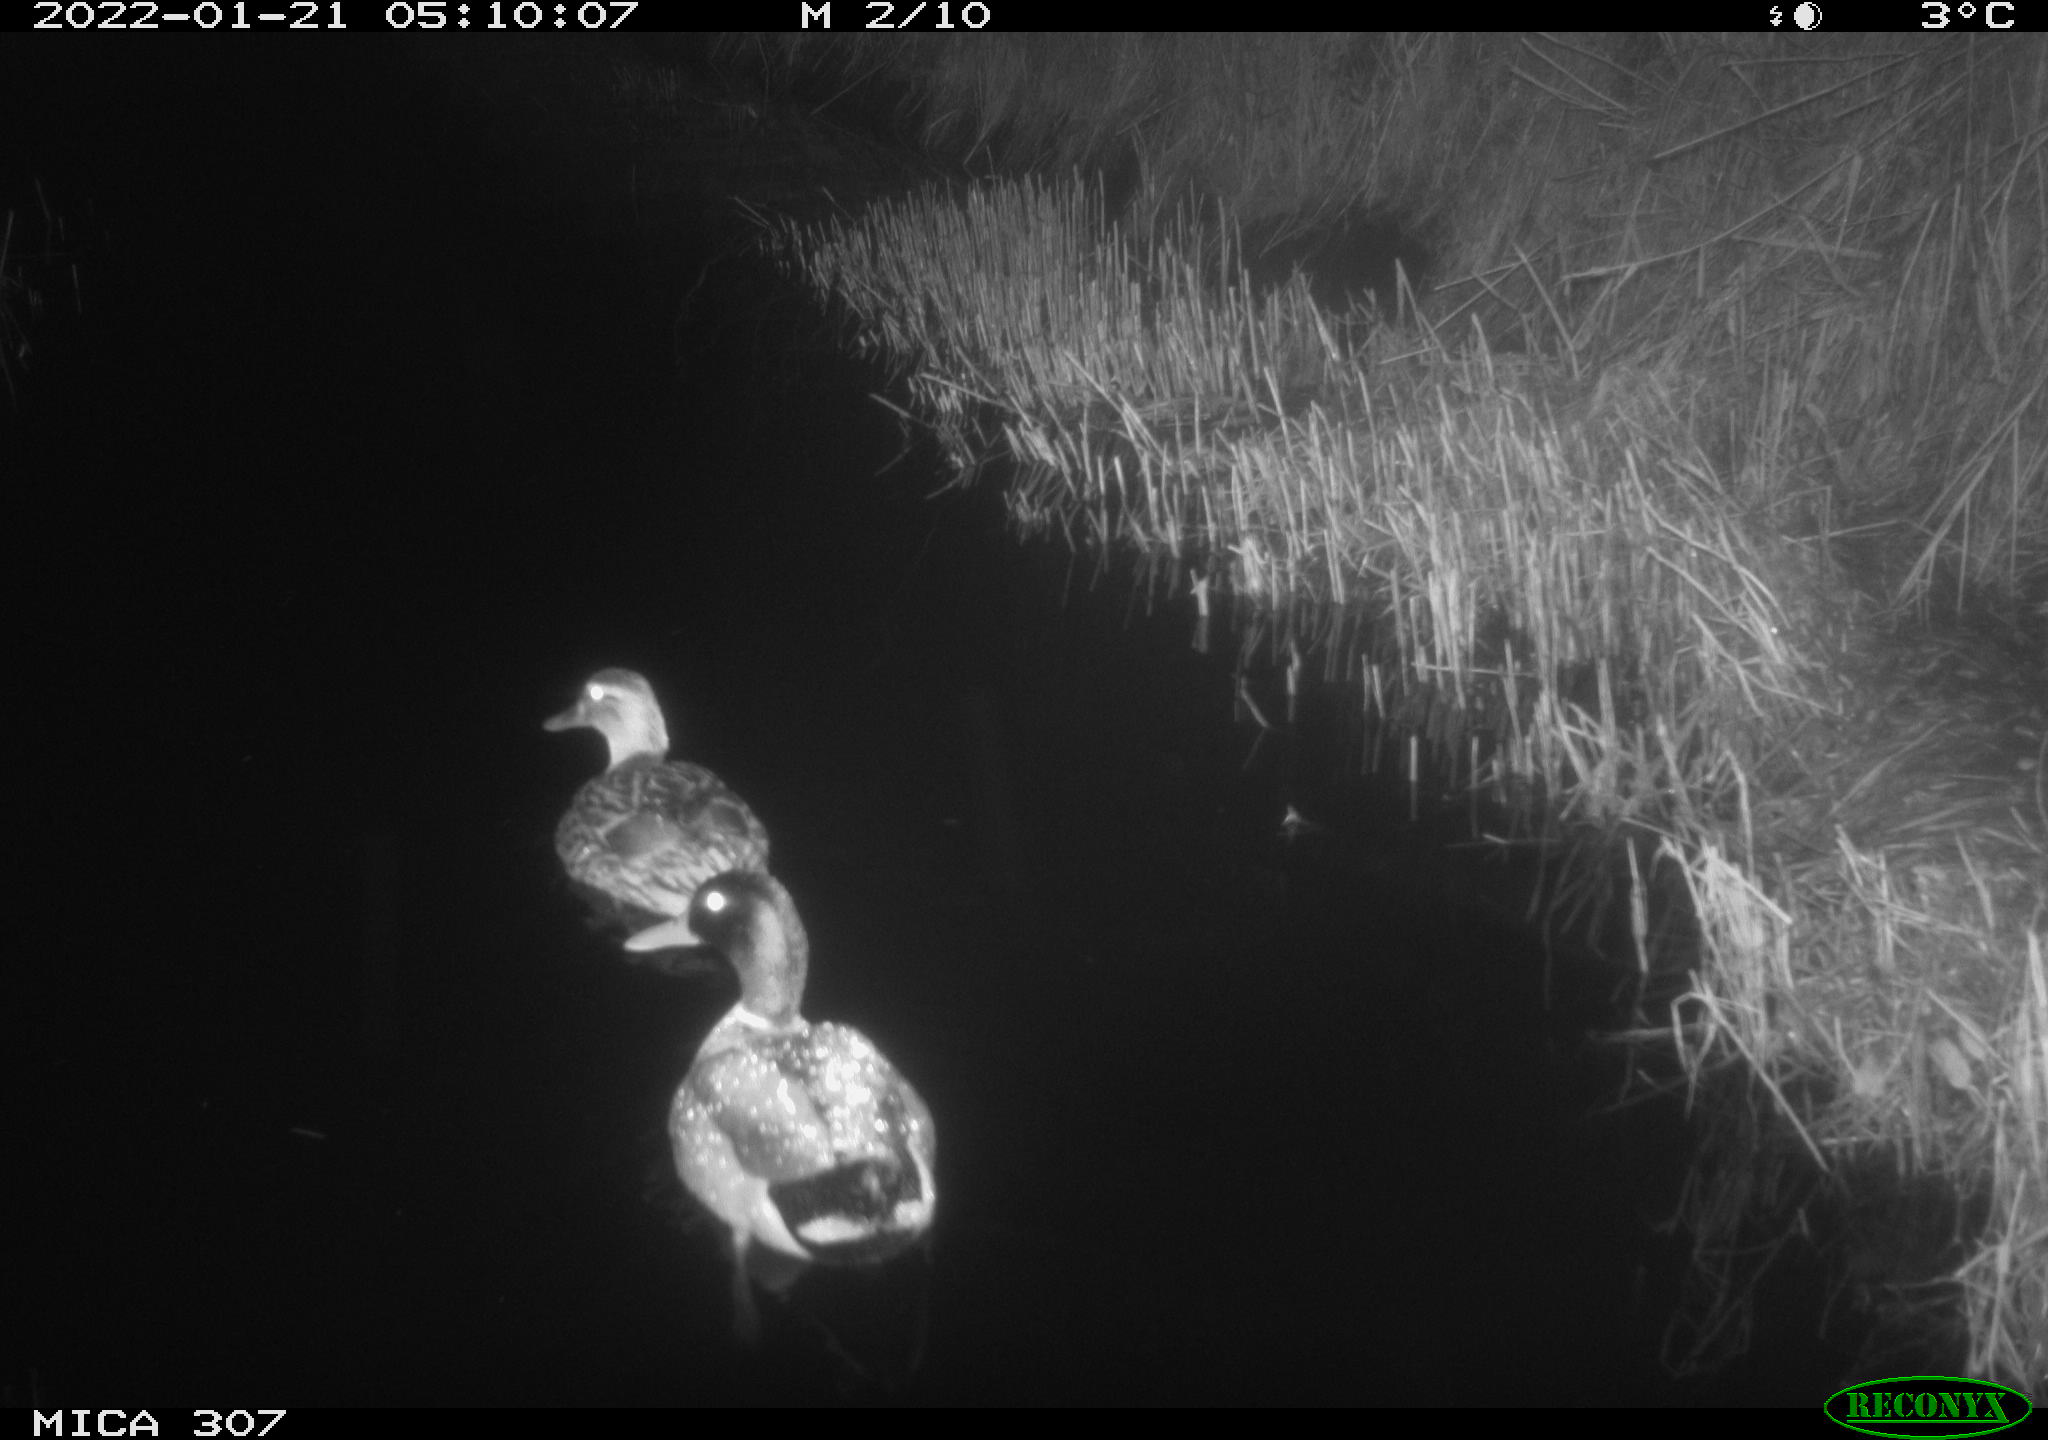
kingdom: Animalia
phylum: Chordata
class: Aves
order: Anseriformes
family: Anatidae
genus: Anas
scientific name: Anas
